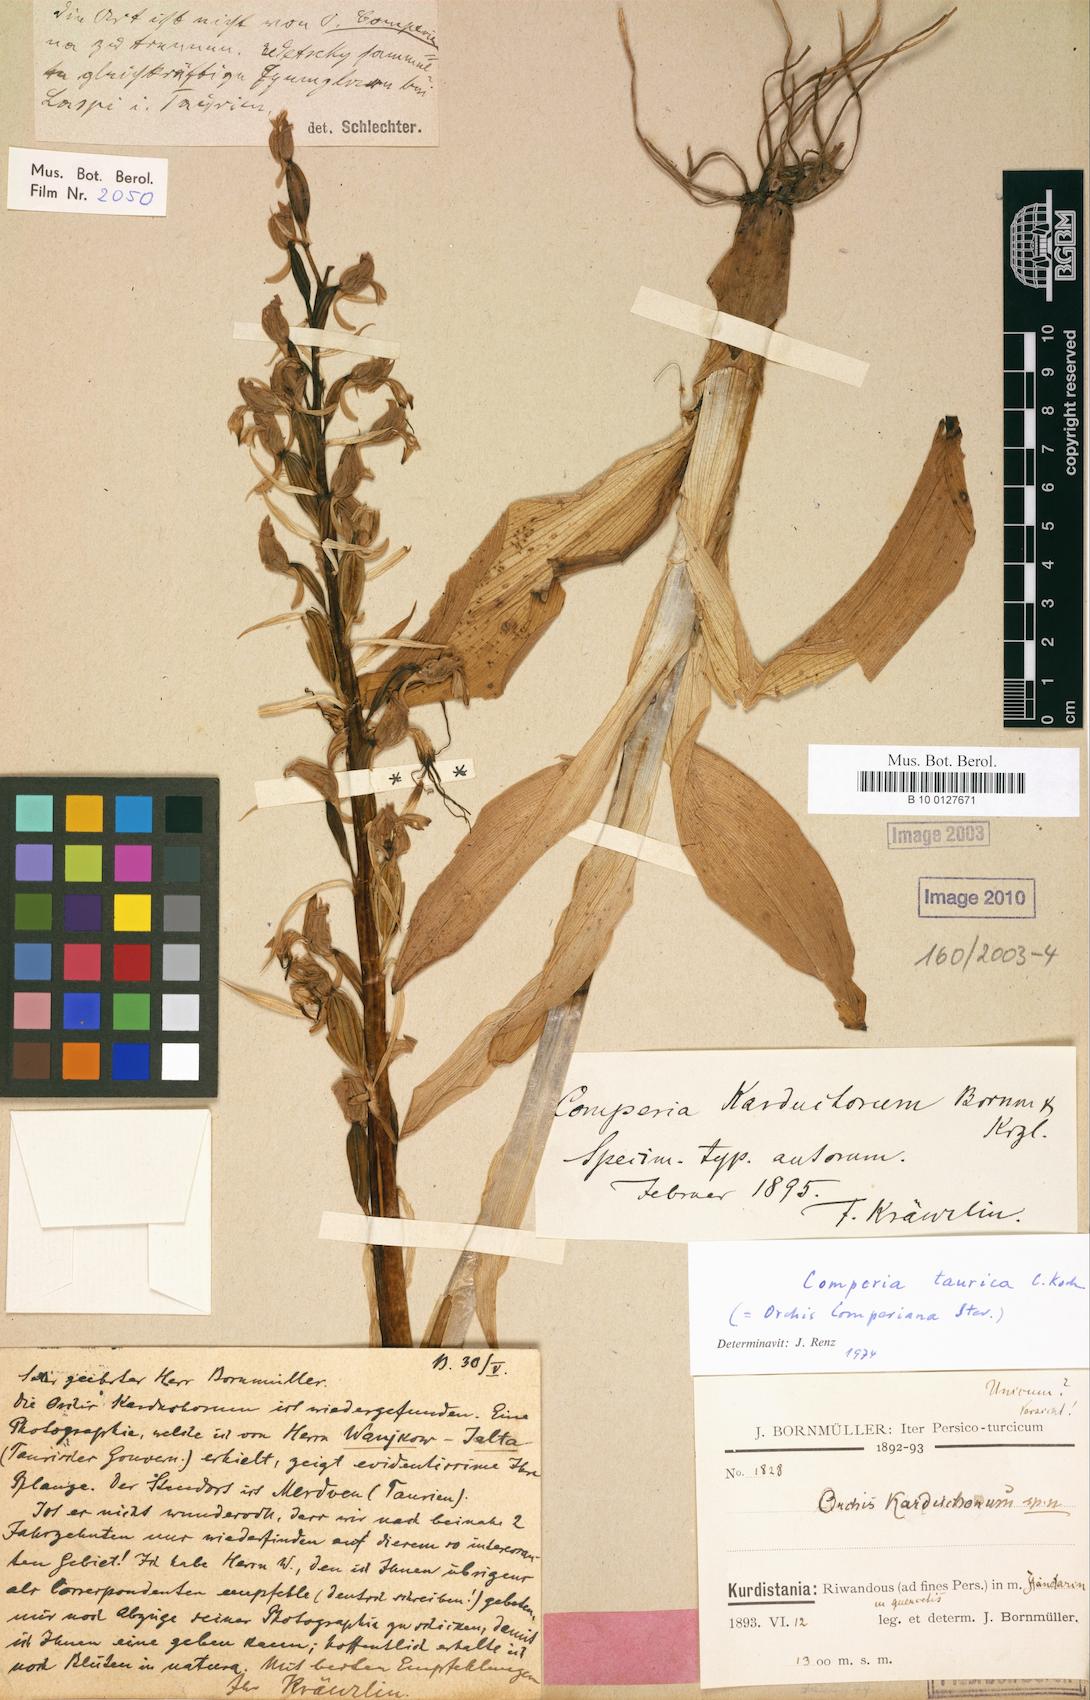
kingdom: Plantae
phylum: Tracheophyta
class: Liliopsida
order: Asparagales
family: Orchidaceae
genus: Himantoglossum
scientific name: Himantoglossum comperianum
